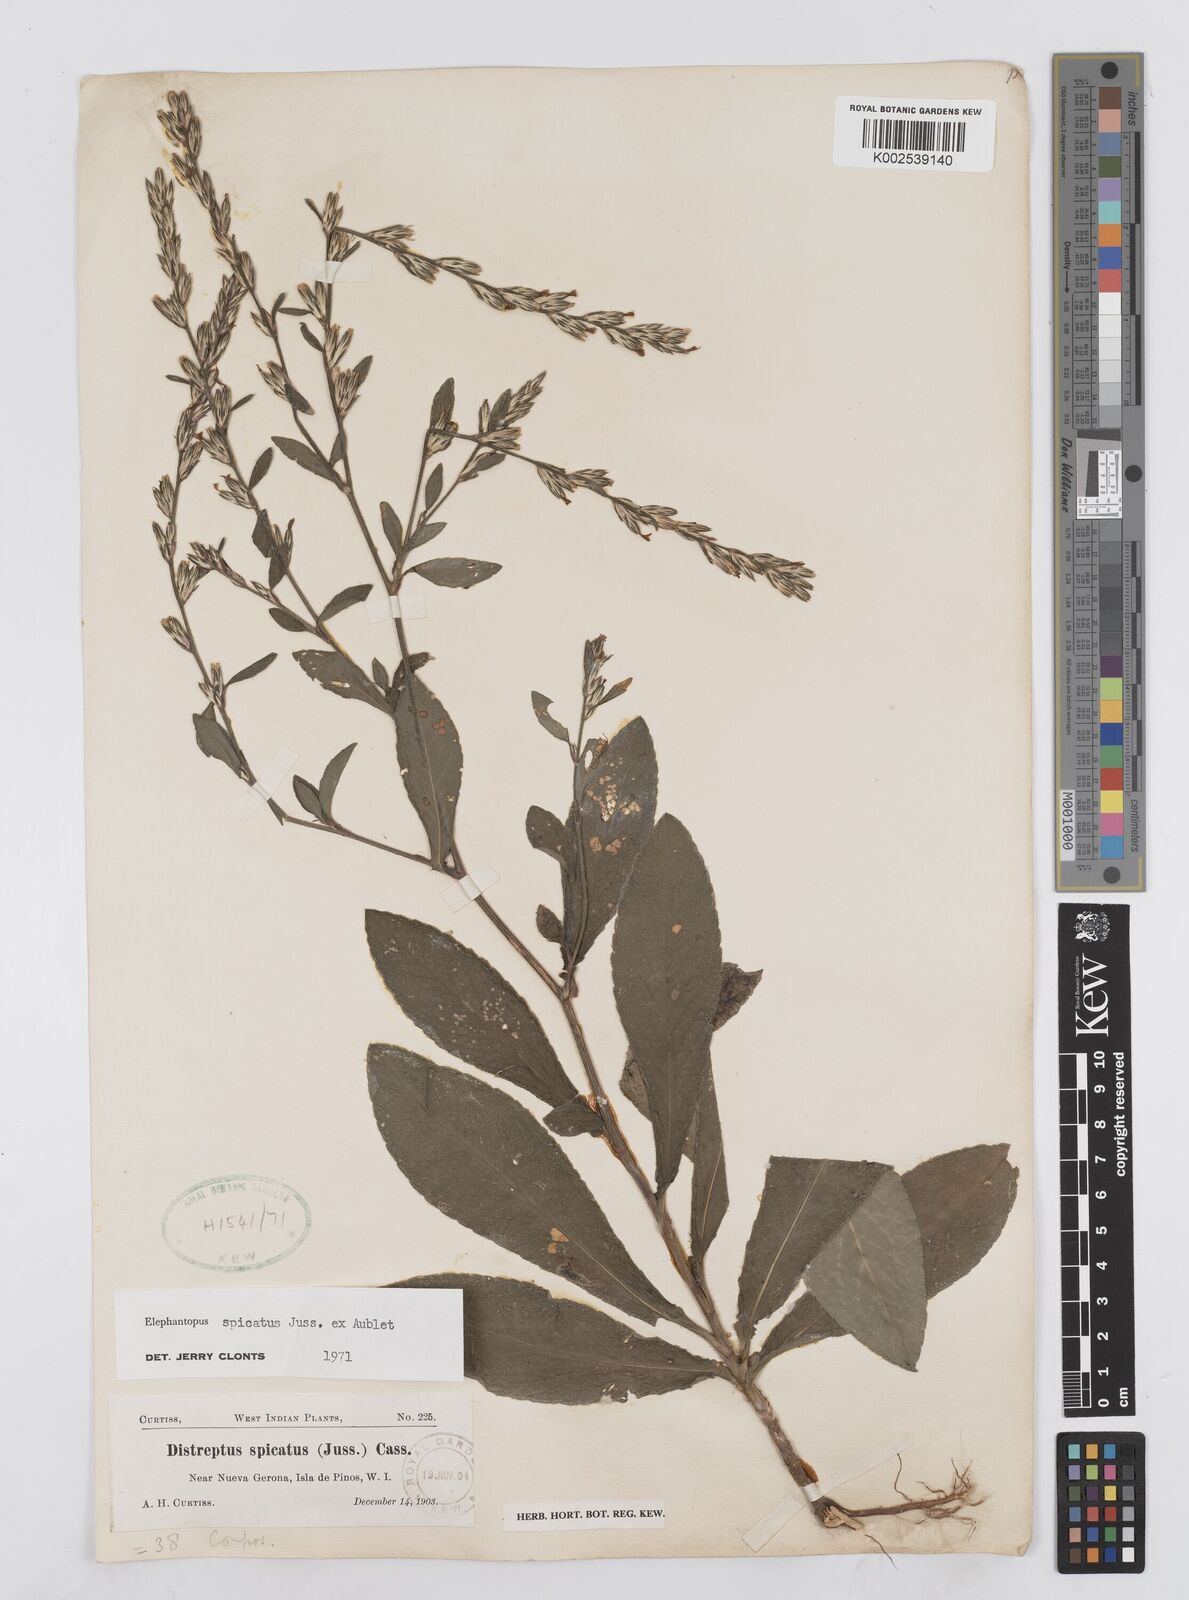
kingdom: Plantae
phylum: Tracheophyta
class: Magnoliopsida
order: Asterales
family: Asteraceae
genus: Pseudelephantopus
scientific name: Pseudelephantopus spicatus
